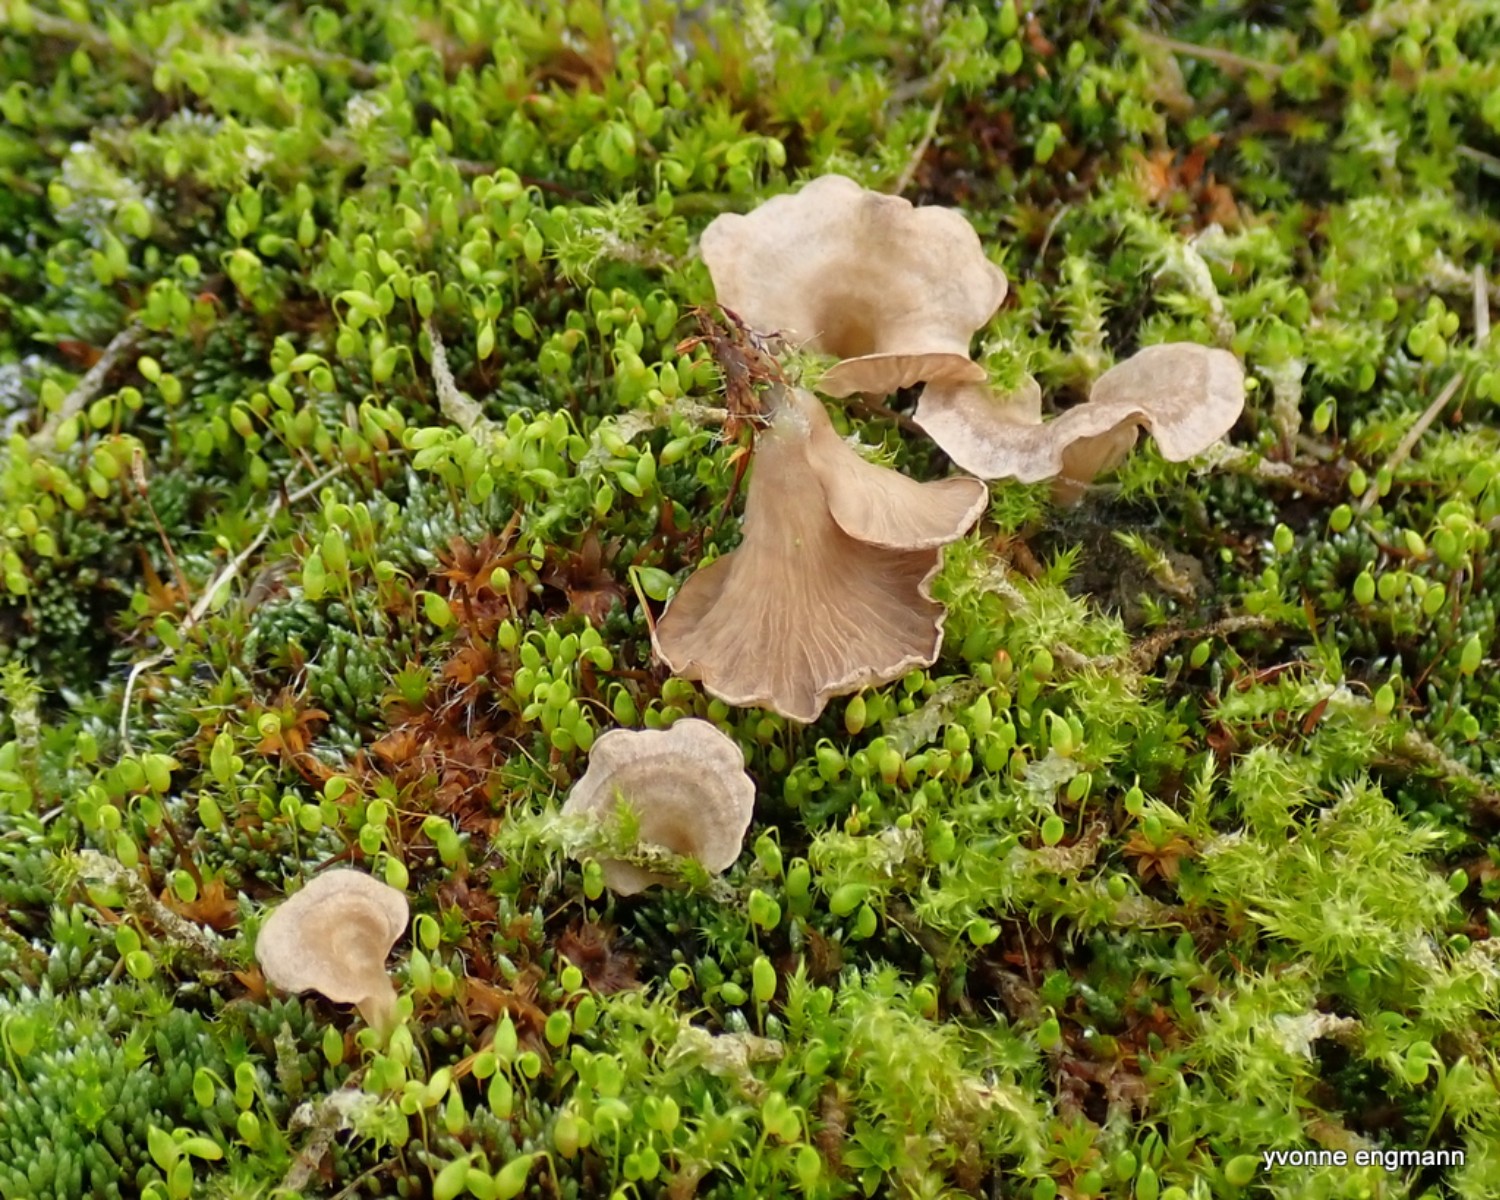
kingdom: Fungi
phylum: Basidiomycota
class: Agaricomycetes
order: Agaricales
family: Hygrophoraceae
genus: Arrhenia
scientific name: Arrhenia spathulata
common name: skæv fontænehat
